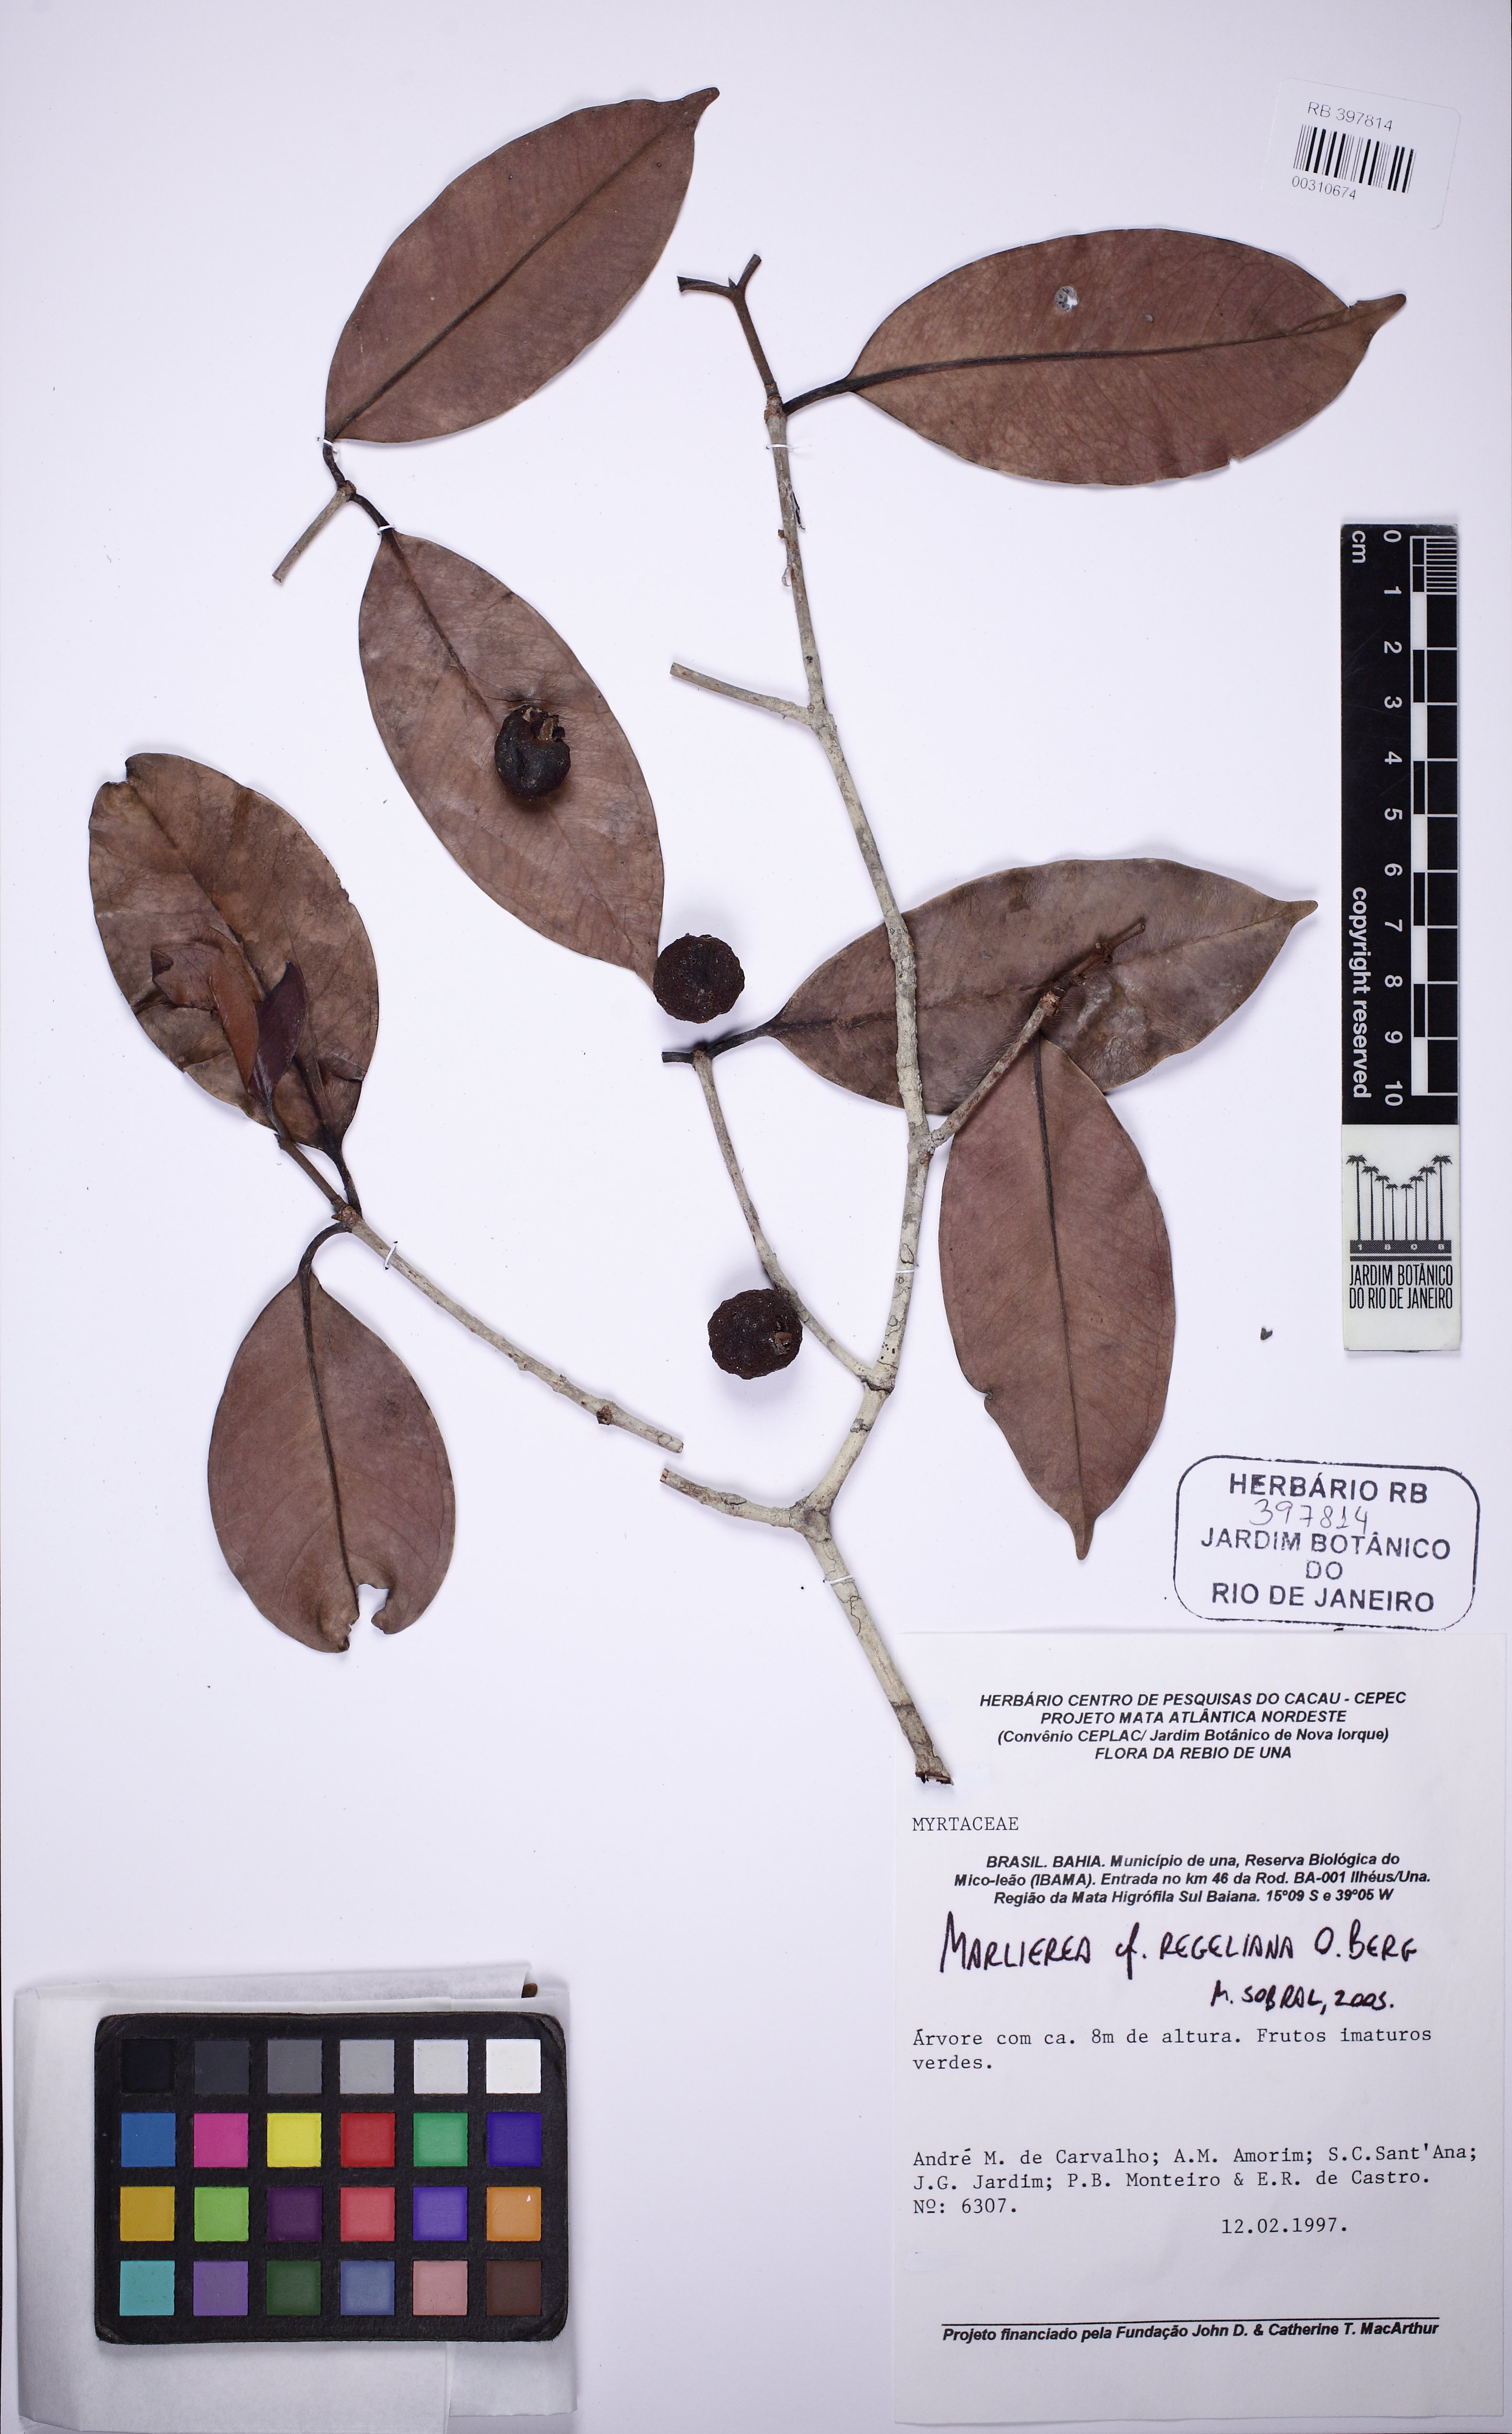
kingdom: Plantae
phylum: Tracheophyta
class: Magnoliopsida
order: Myrtales
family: Myrtaceae
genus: Myrcia
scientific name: Myrcia vellozoi
